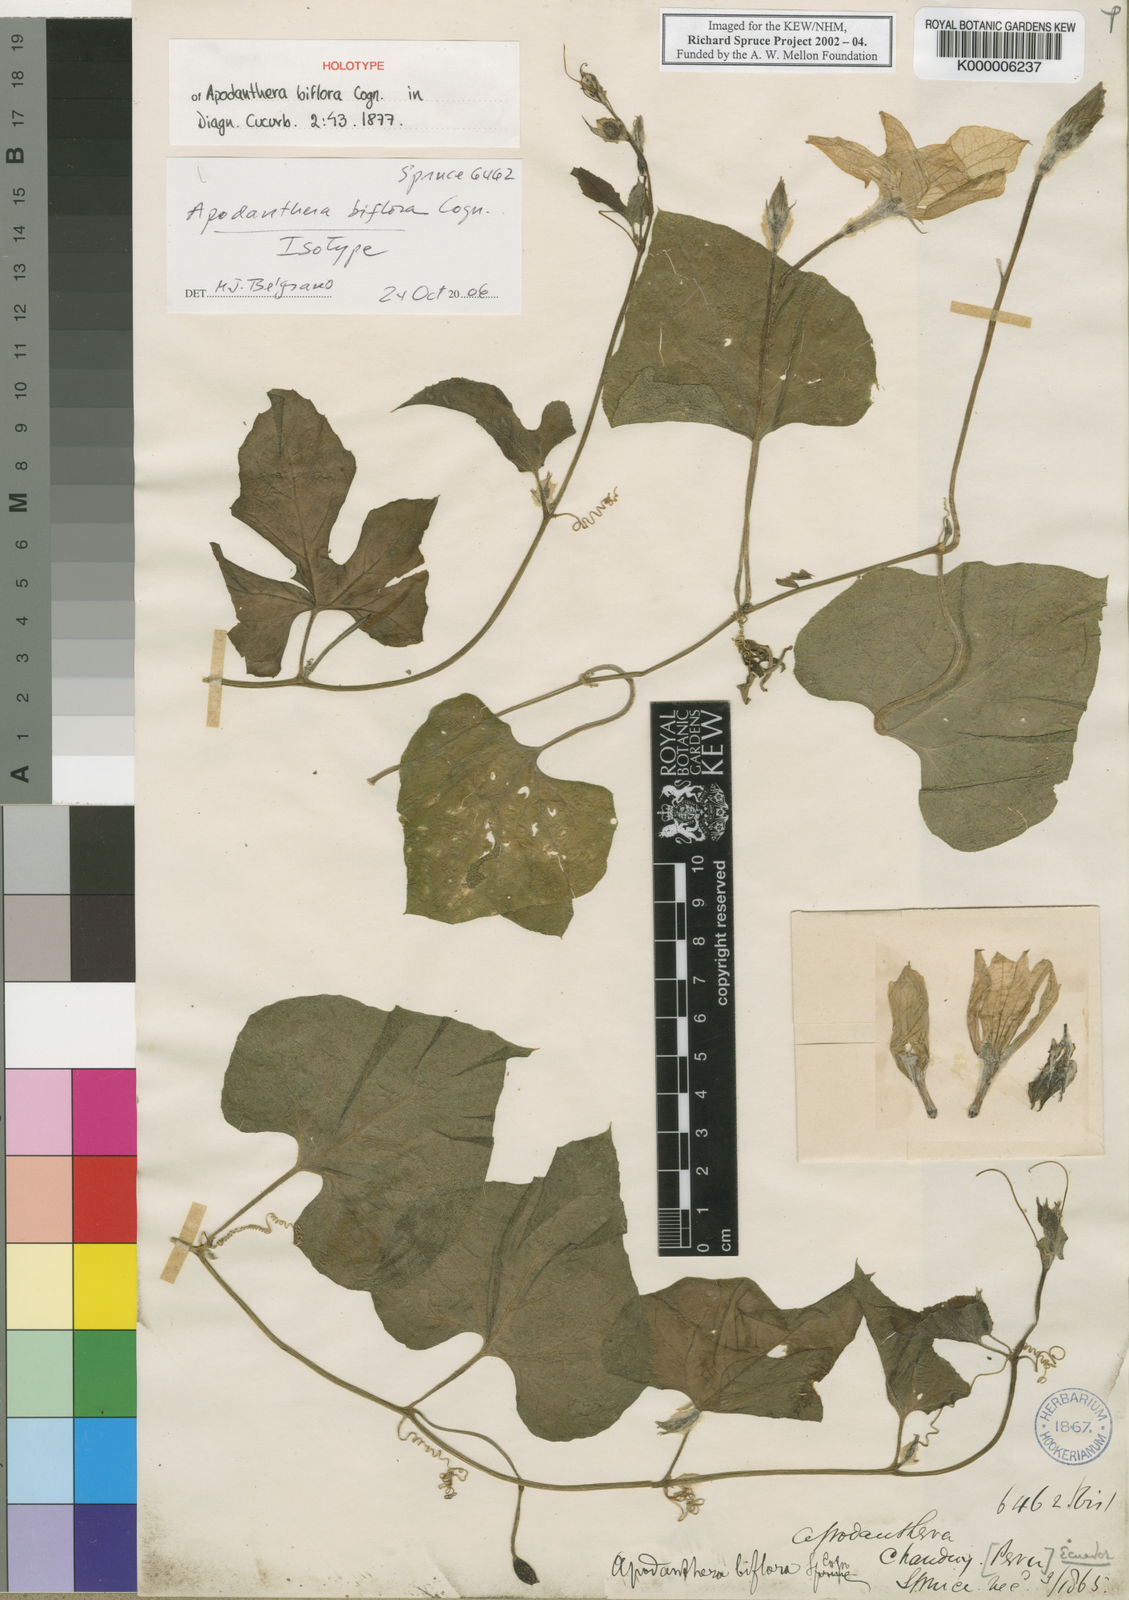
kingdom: Plantae
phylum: Tracheophyta
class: Magnoliopsida
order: Cucurbitales
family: Cucurbitaceae
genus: Apodanthera
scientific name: Apodanthera biflora
